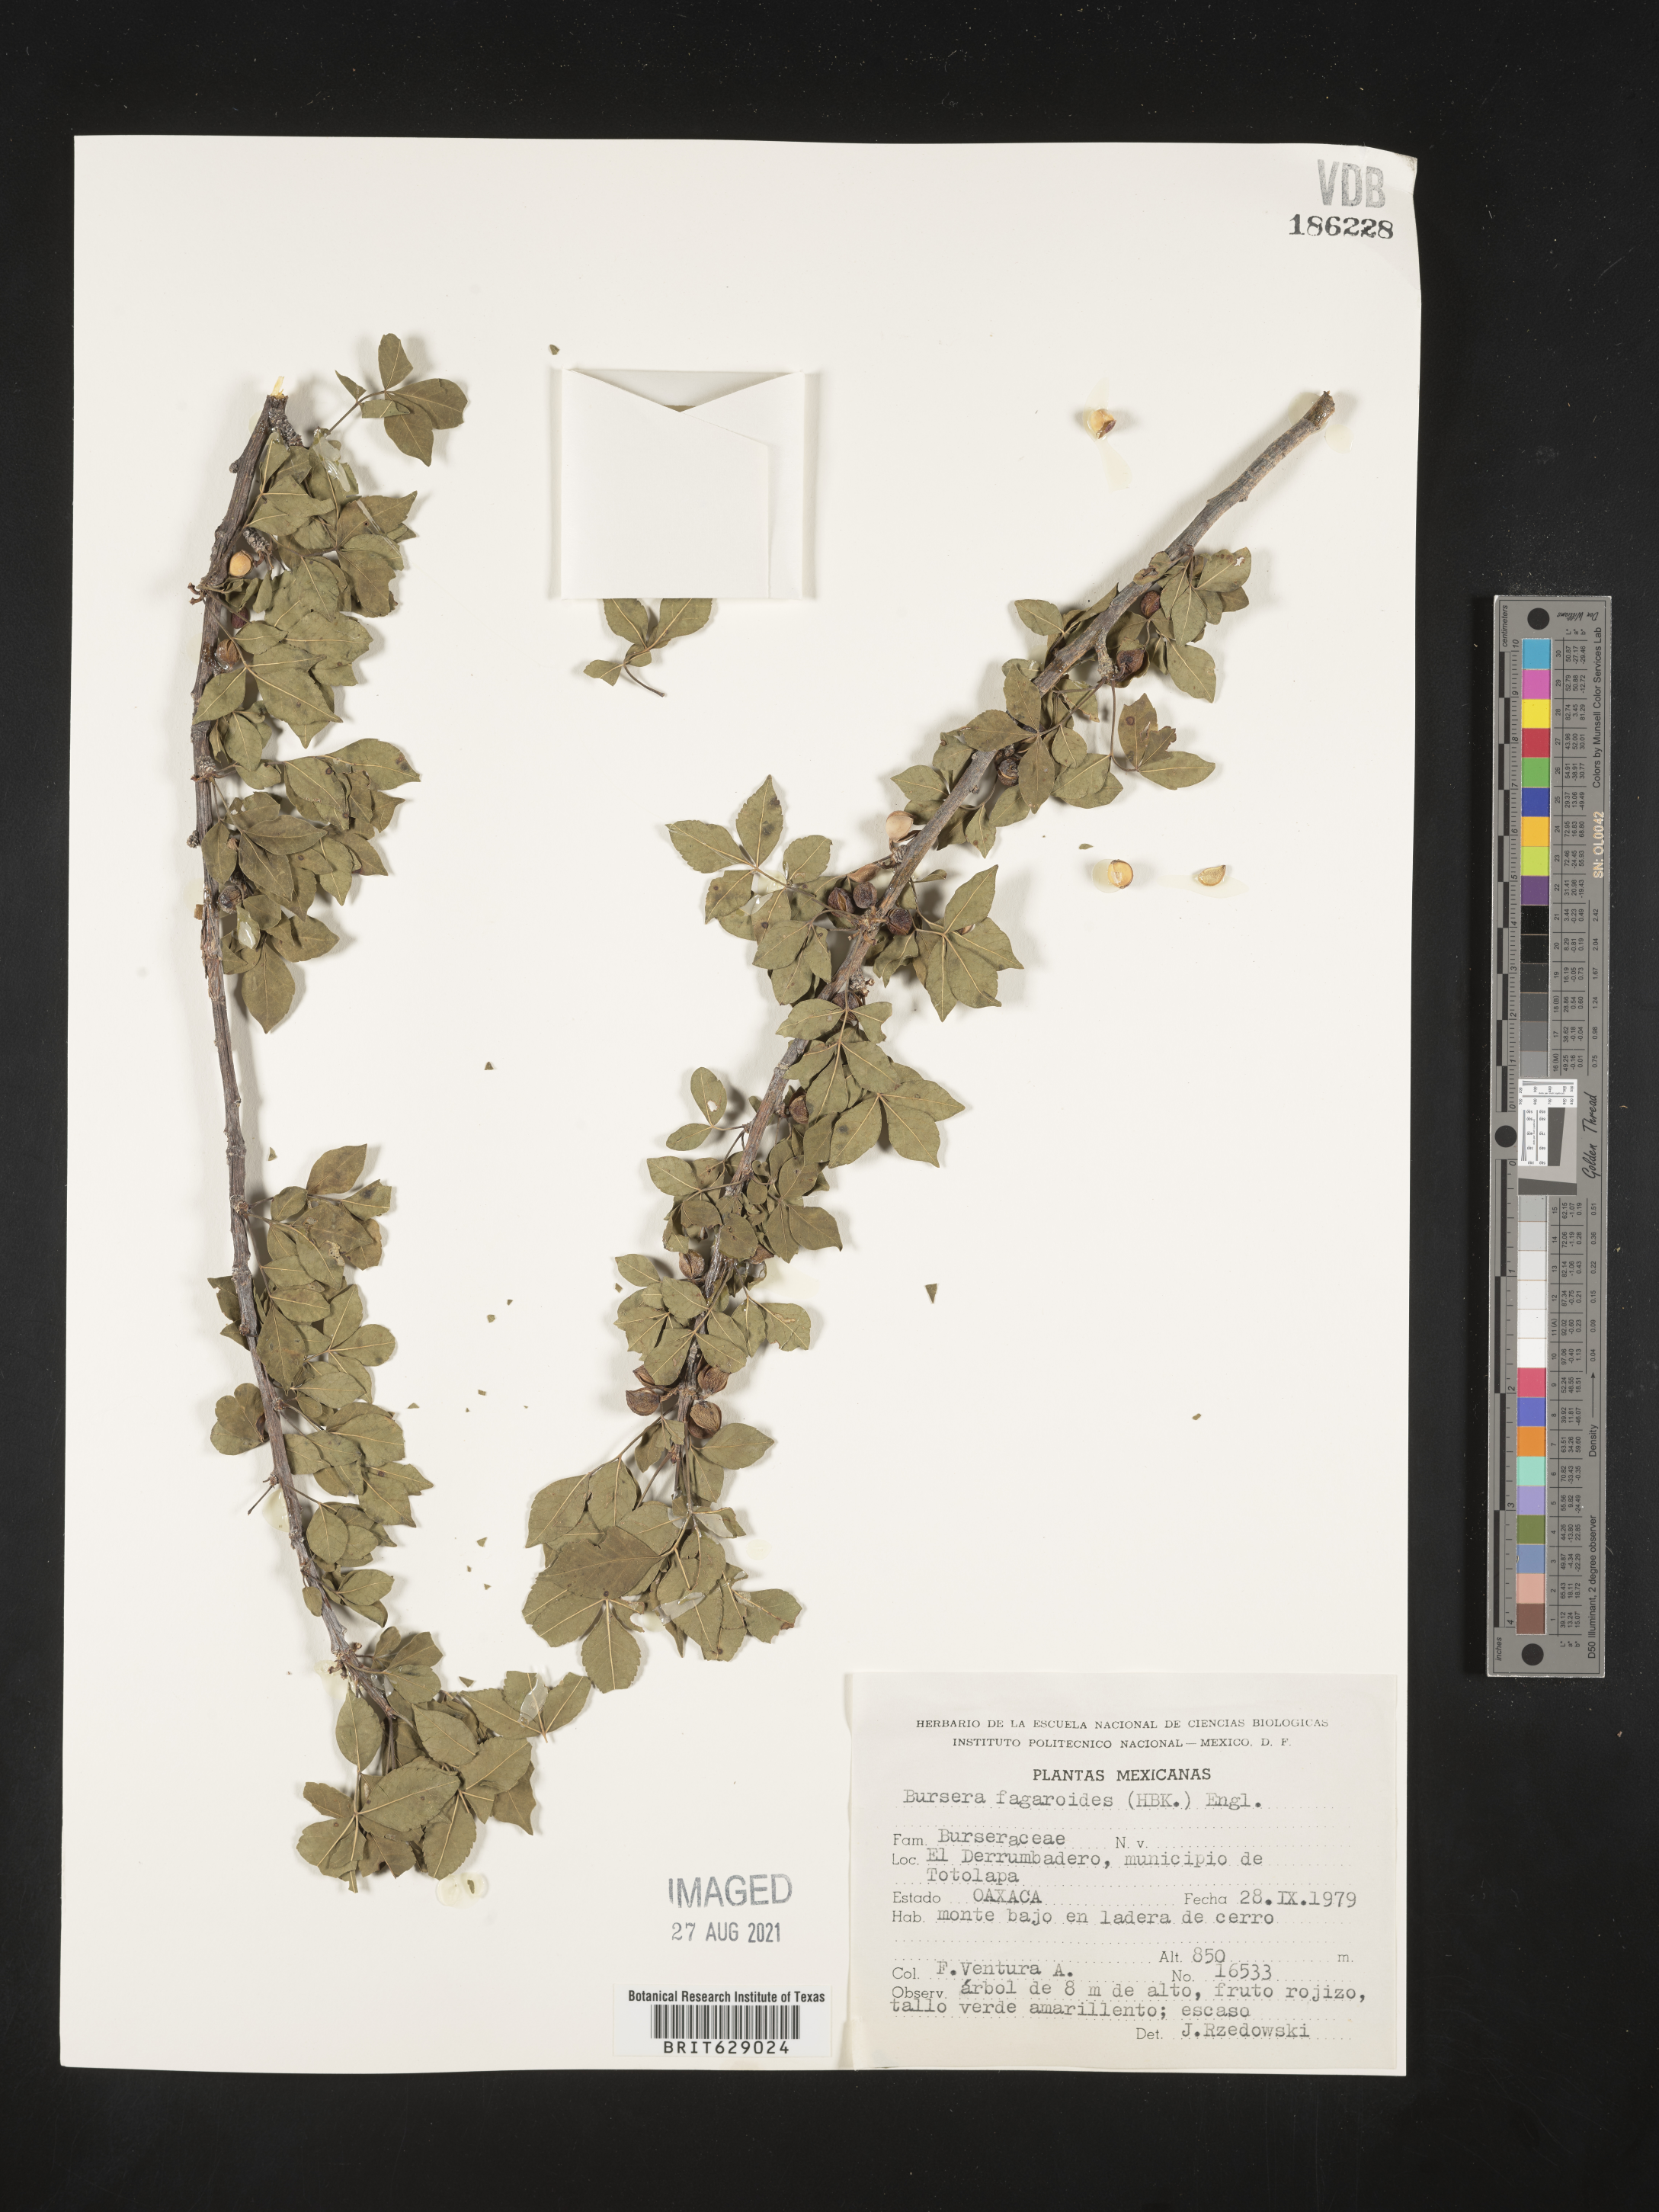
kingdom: Plantae
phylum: Tracheophyta
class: Magnoliopsida
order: Sapindales
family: Burseraceae
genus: Bursera
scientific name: Bursera
